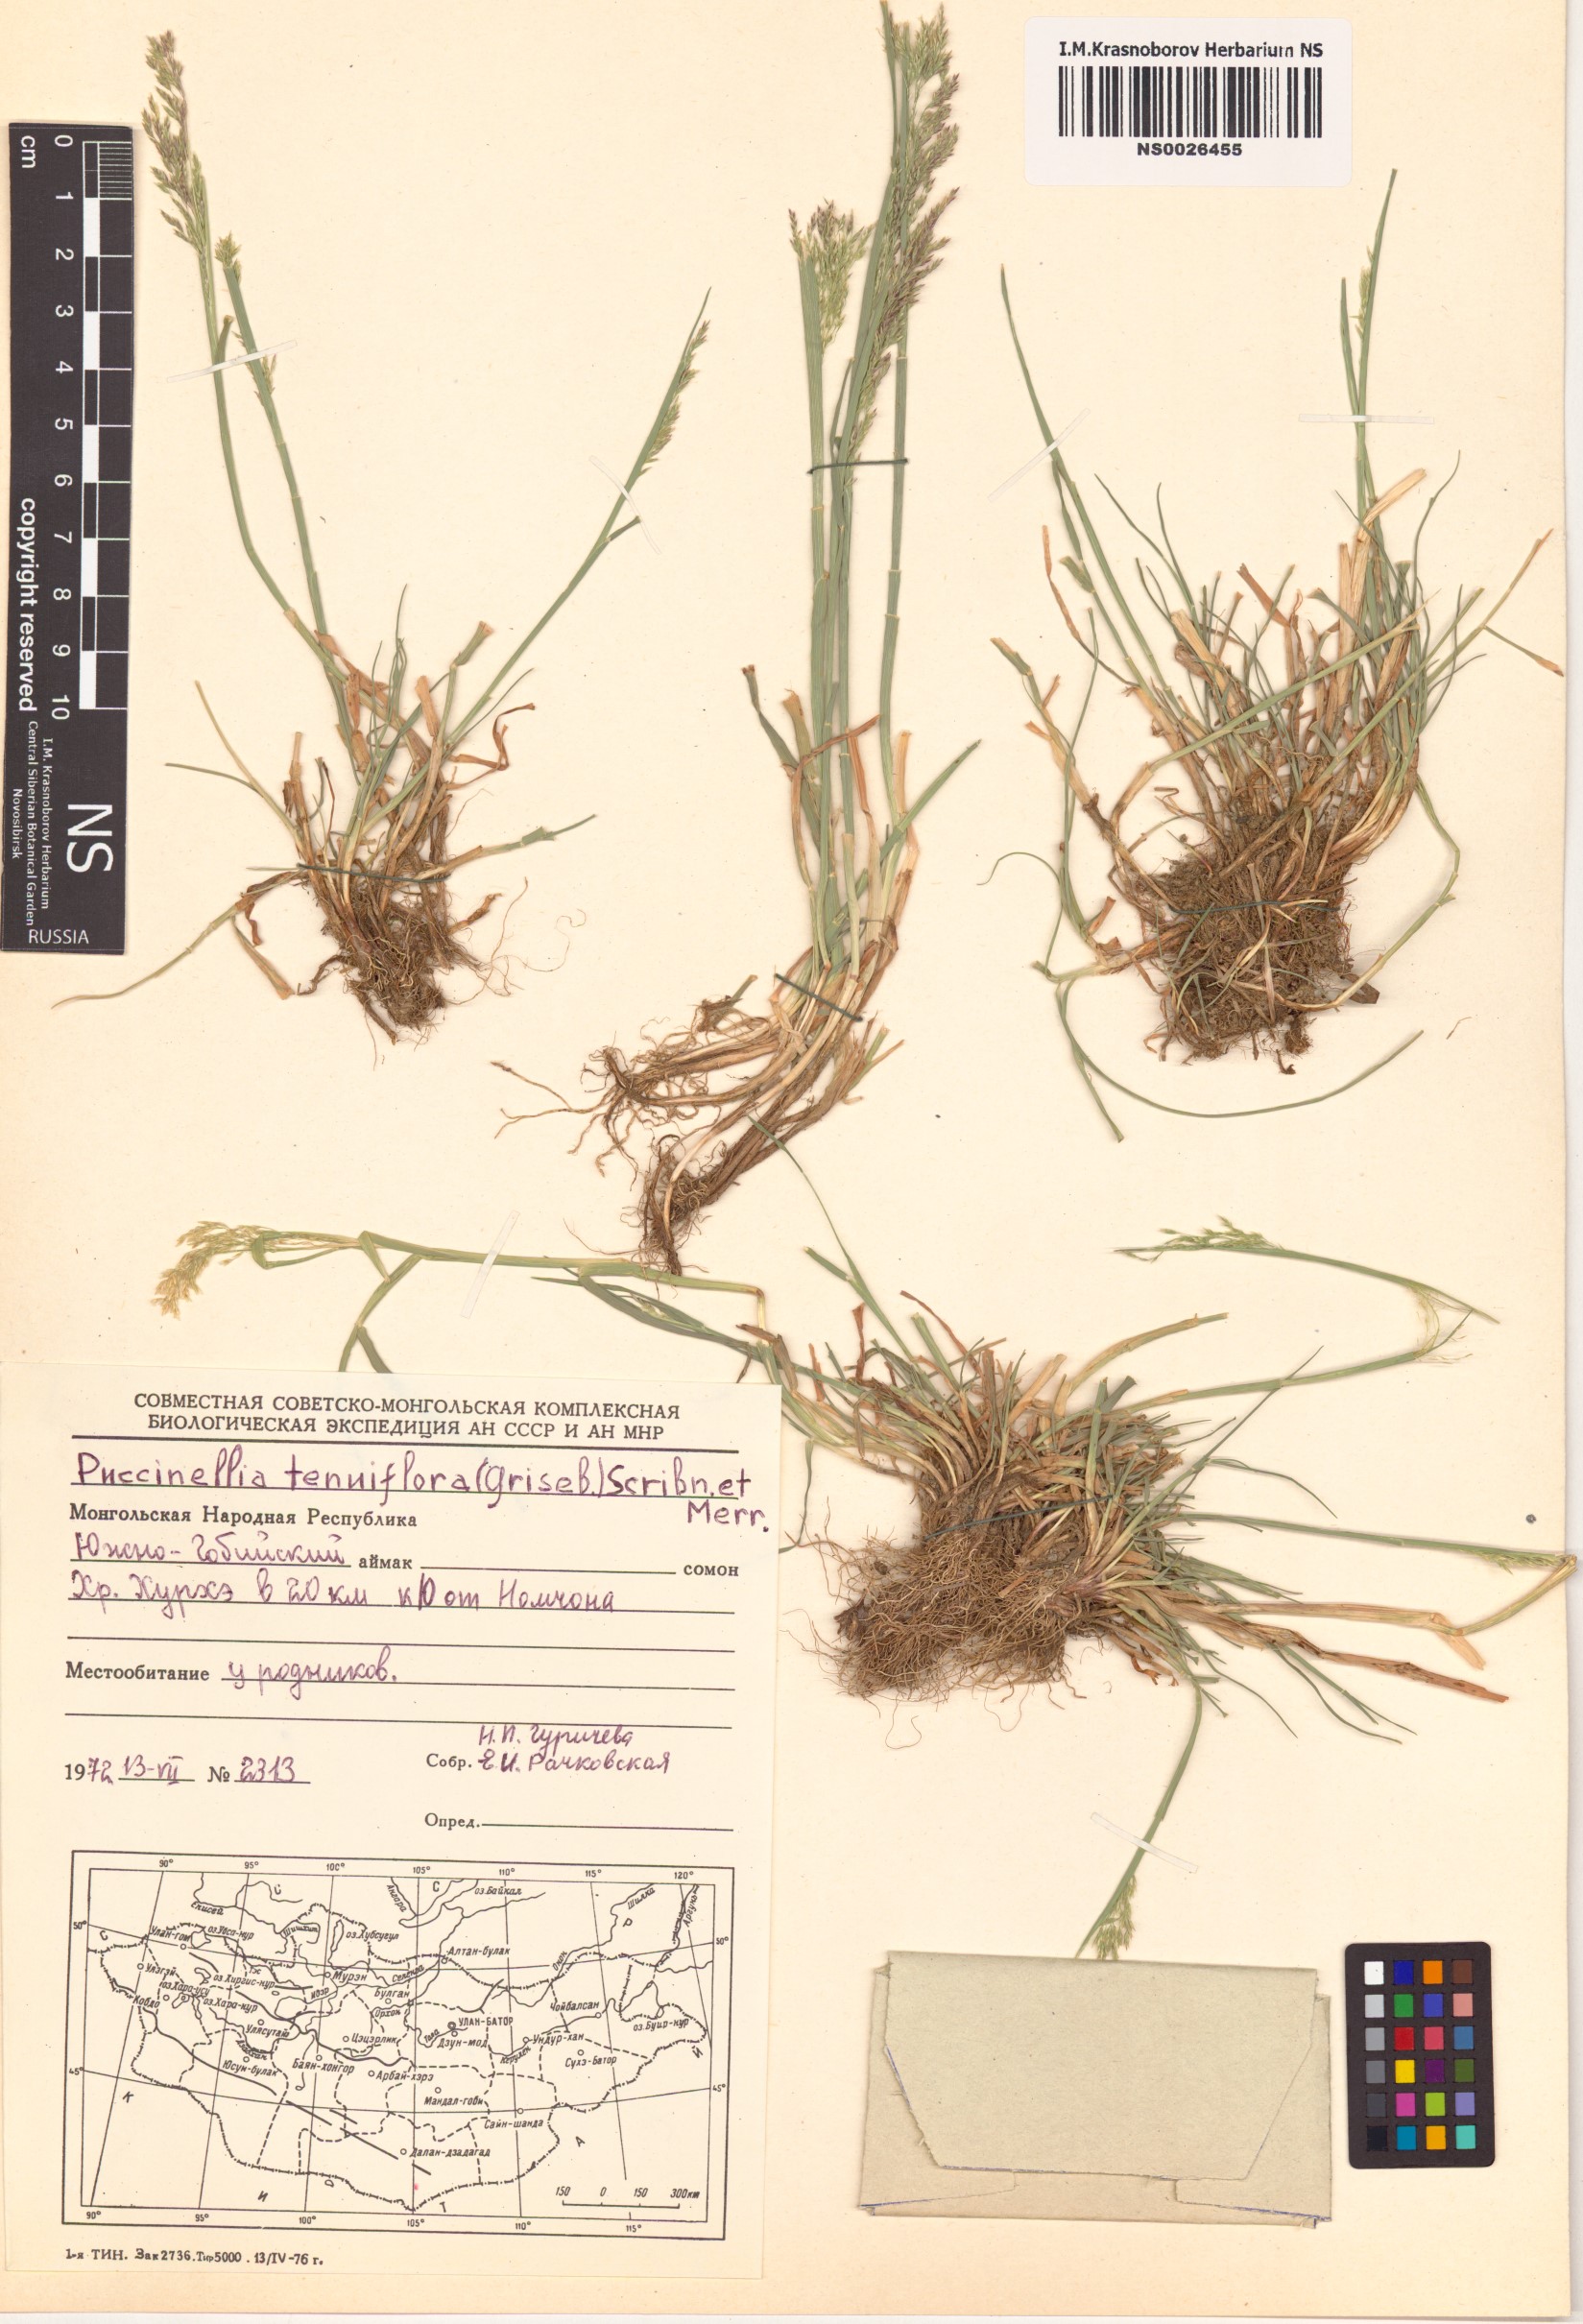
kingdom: Plantae
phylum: Tracheophyta
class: Liliopsida
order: Poales
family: Poaceae
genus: Puccinellia
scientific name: Puccinellia tenuiflora
